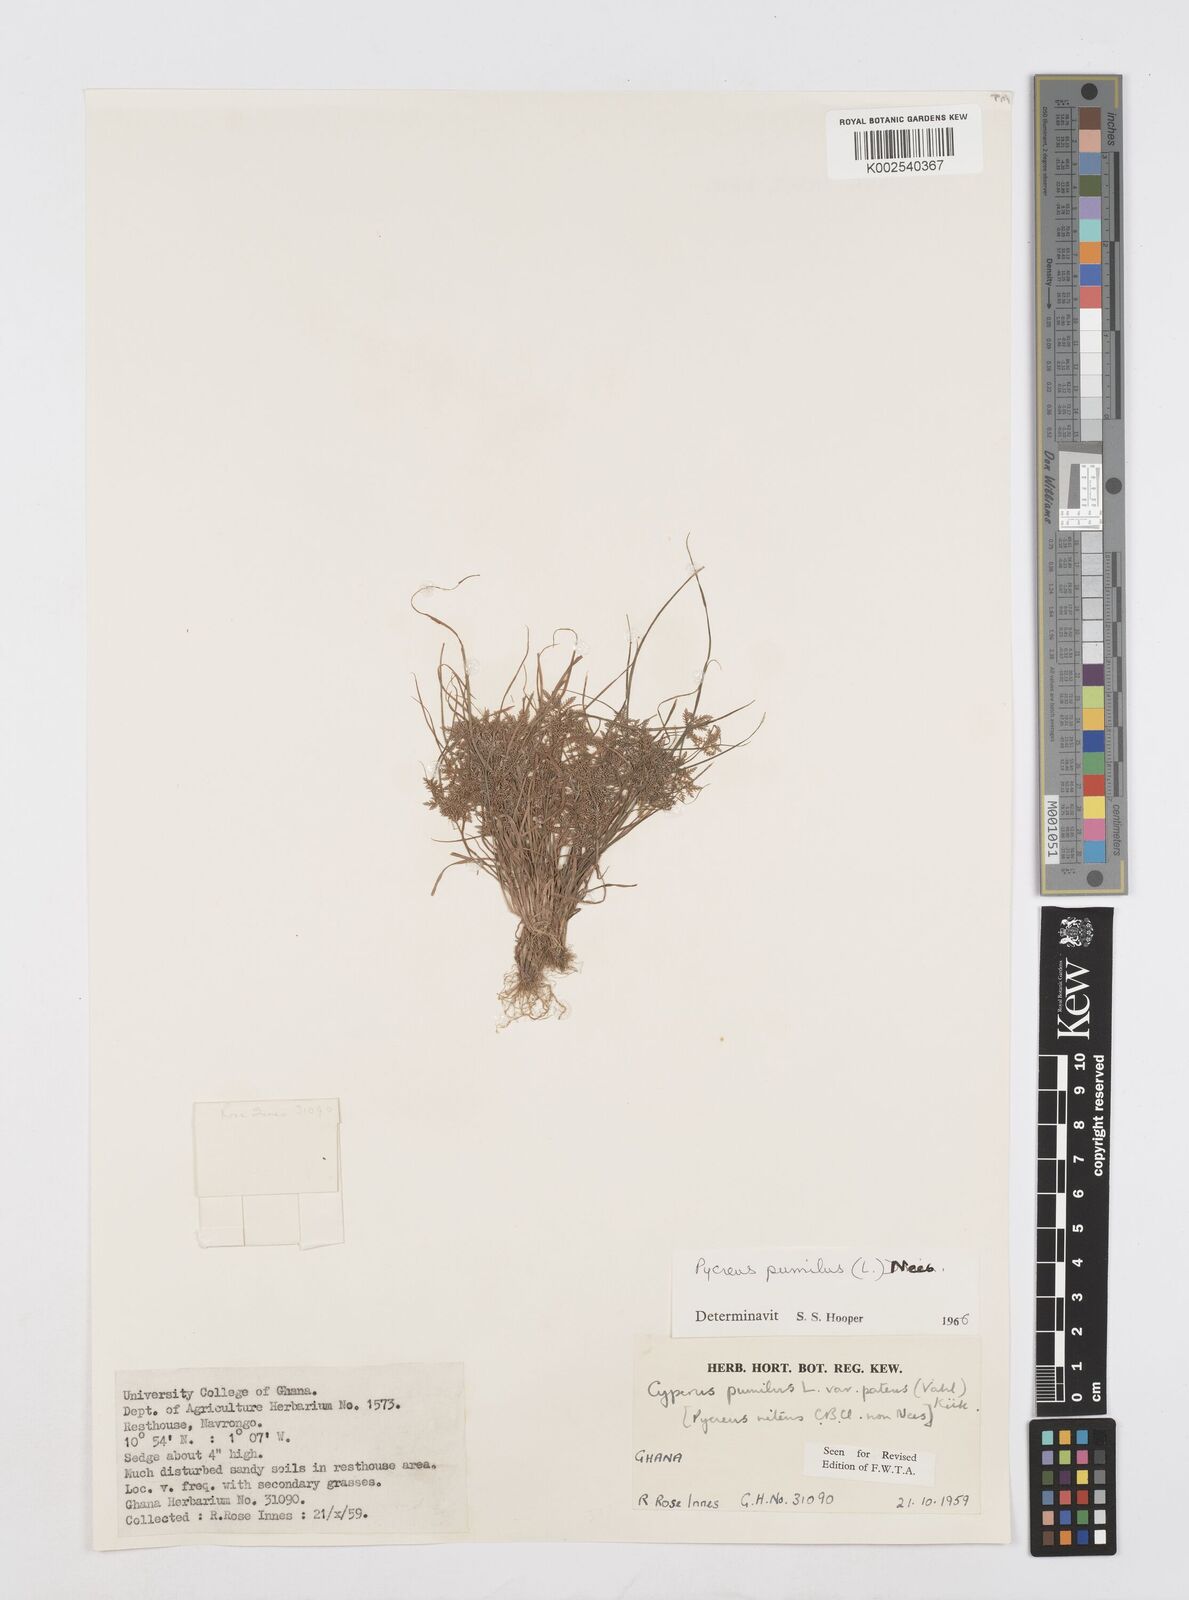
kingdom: Plantae
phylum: Tracheophyta
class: Liliopsida
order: Poales
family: Cyperaceae
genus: Cyperus
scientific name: Cyperus pumilus
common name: Low flatsedge
